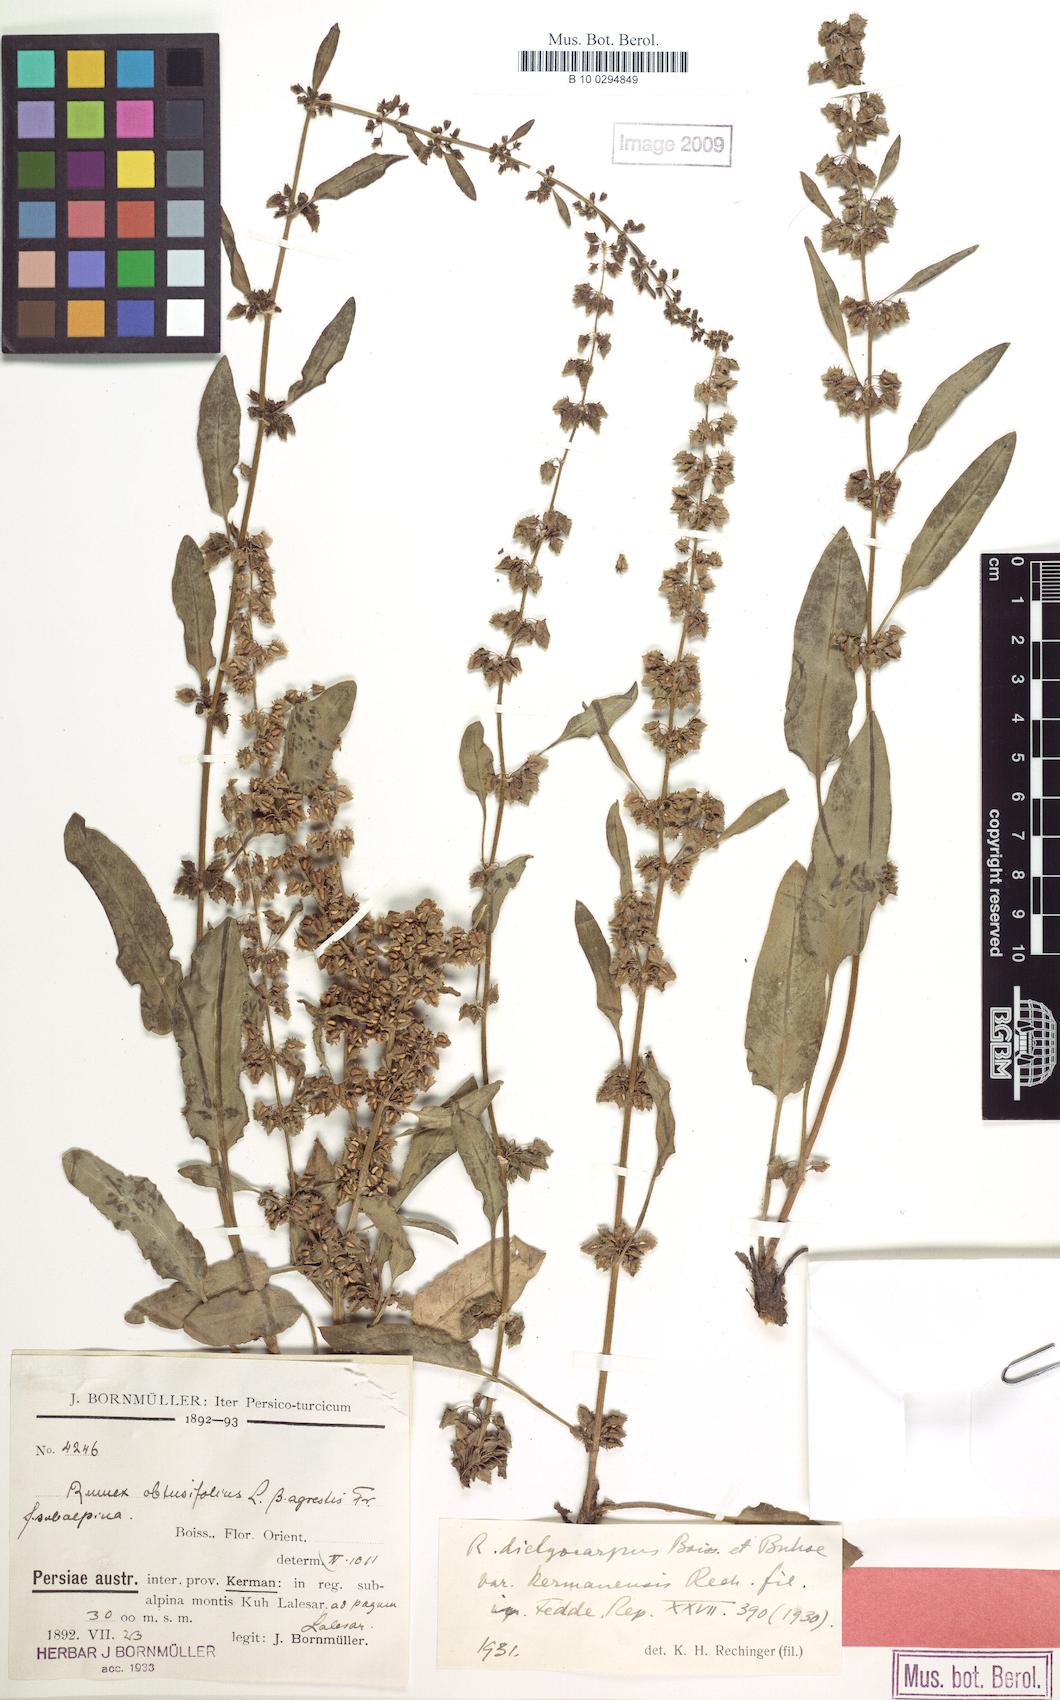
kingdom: Plantae
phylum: Tracheophyta
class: Magnoliopsida
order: Caryophyllales
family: Polygonaceae
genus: Rumex
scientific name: Rumex chalepensis
